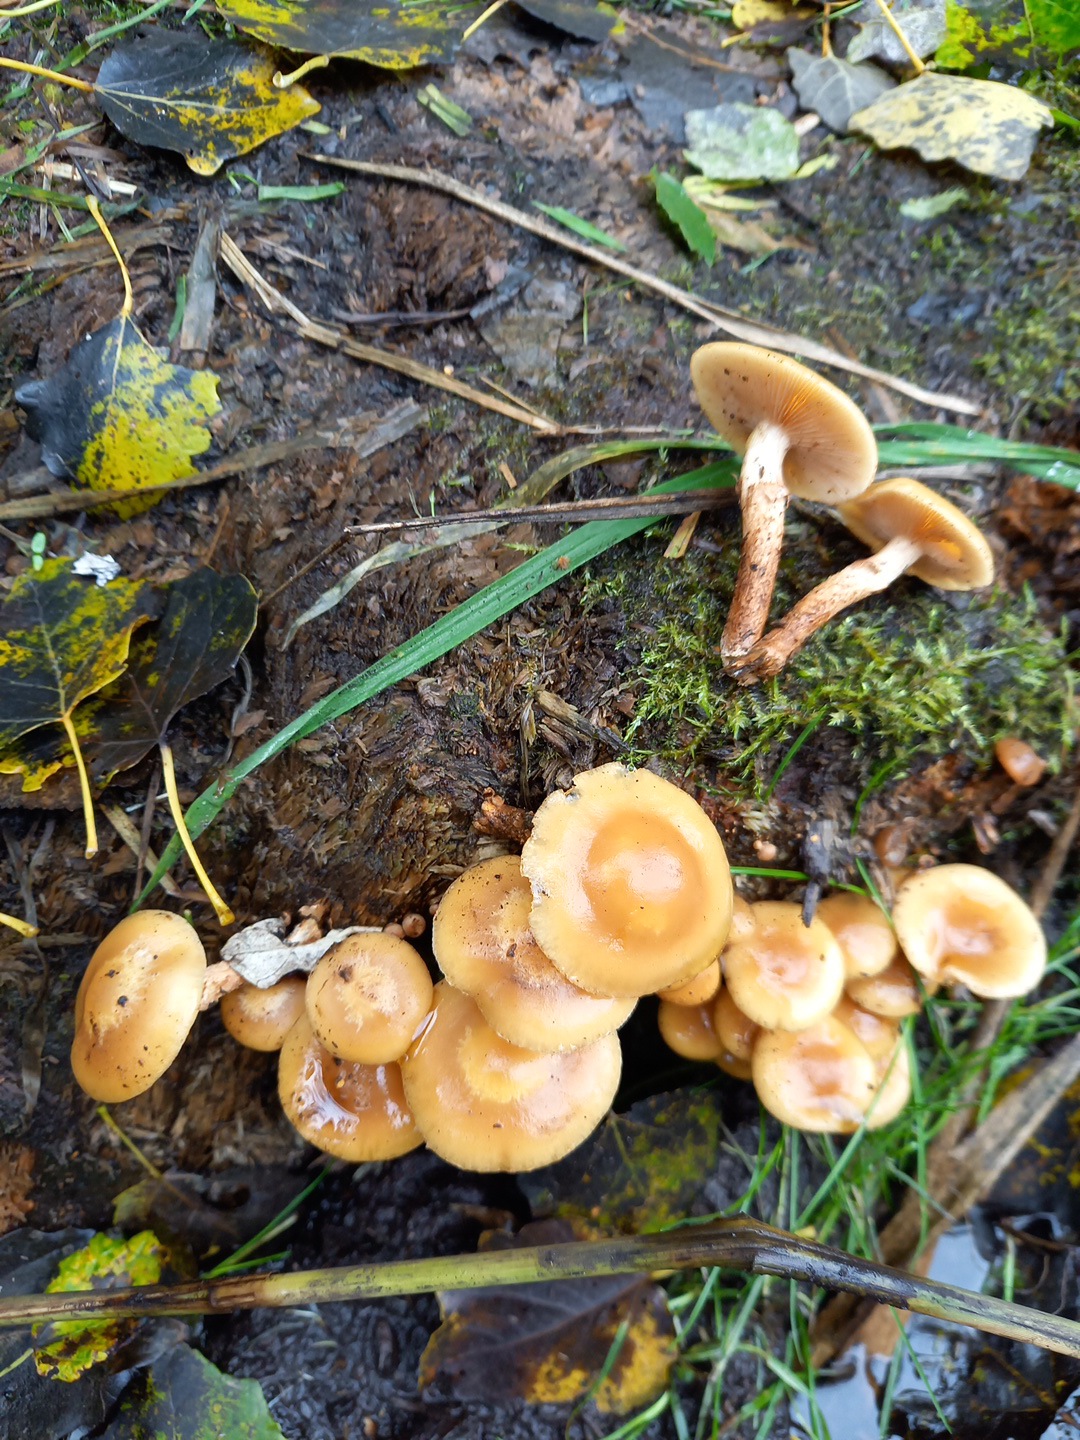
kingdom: Fungi
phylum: Basidiomycota
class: Agaricomycetes
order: Agaricales
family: Strophariaceae
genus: Kuehneromyces
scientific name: Kuehneromyces mutabilis
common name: foranderlig skælhat
